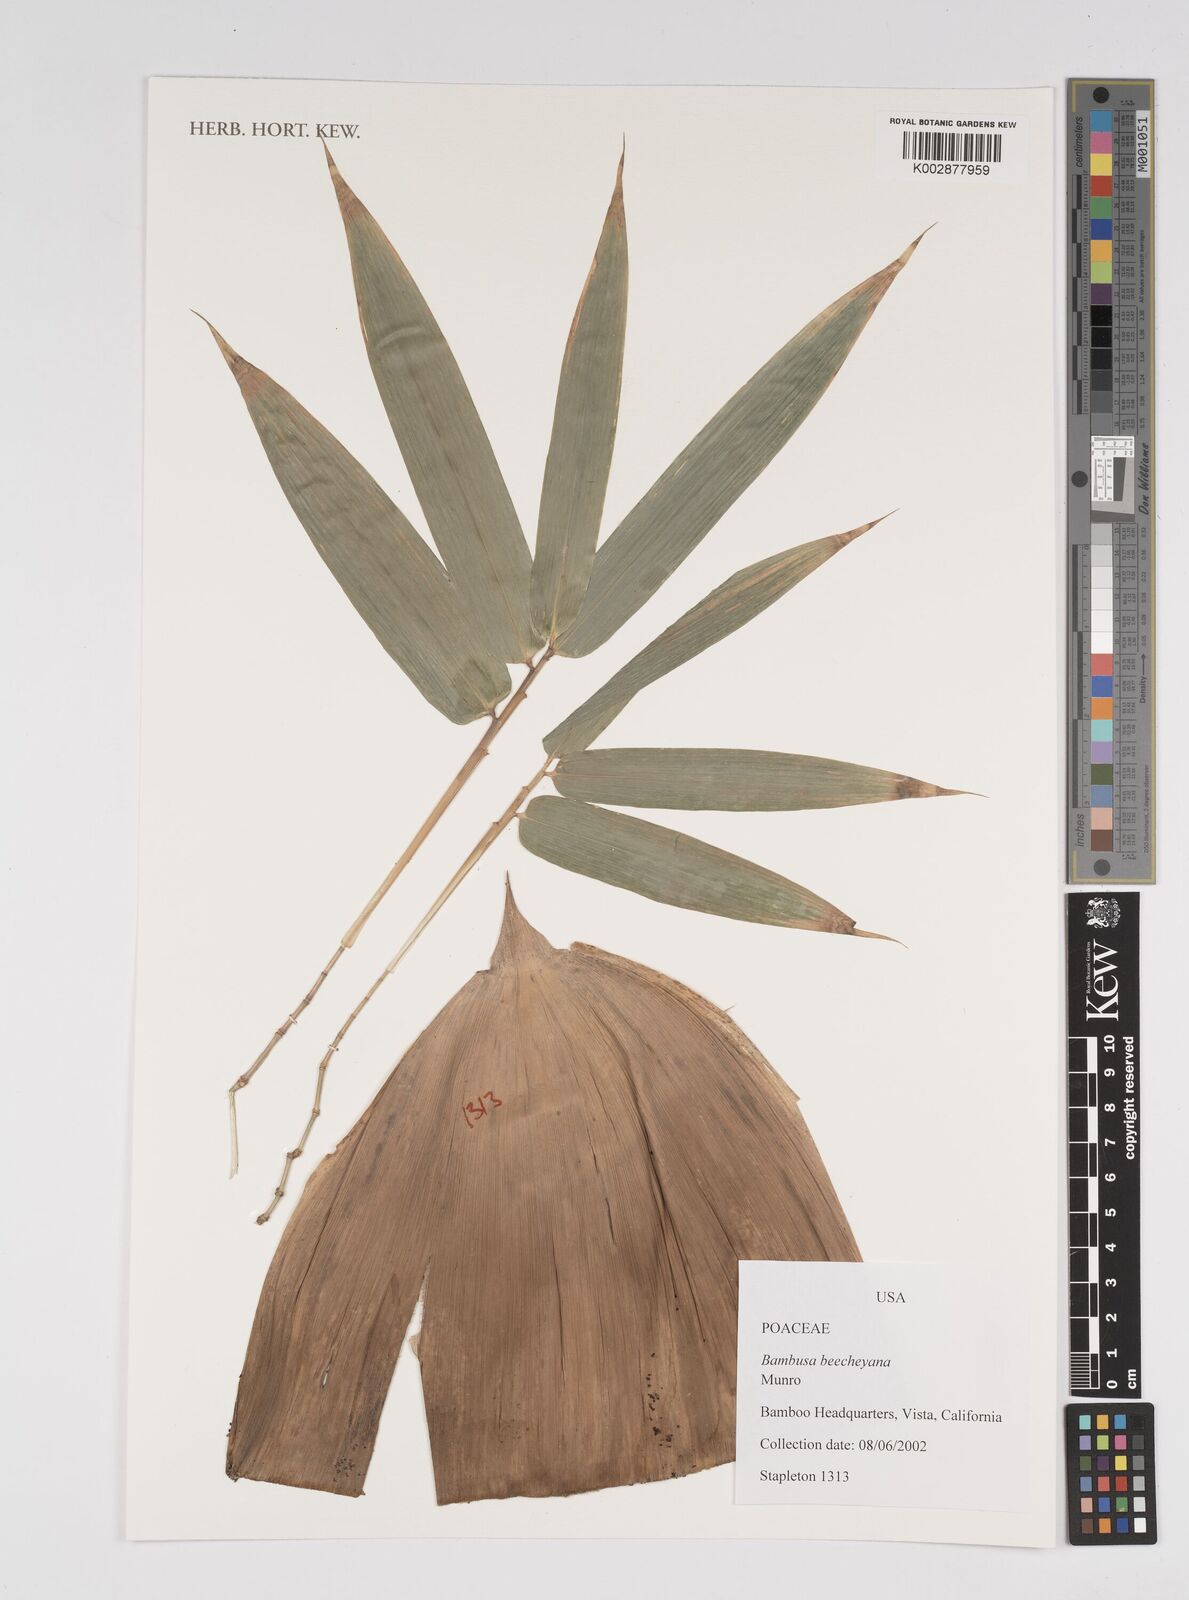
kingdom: Plantae
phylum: Tracheophyta
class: Liliopsida
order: Poales
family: Poaceae
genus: Bambusa
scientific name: Bambusa beecheyana
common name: Beechey's bamboo
